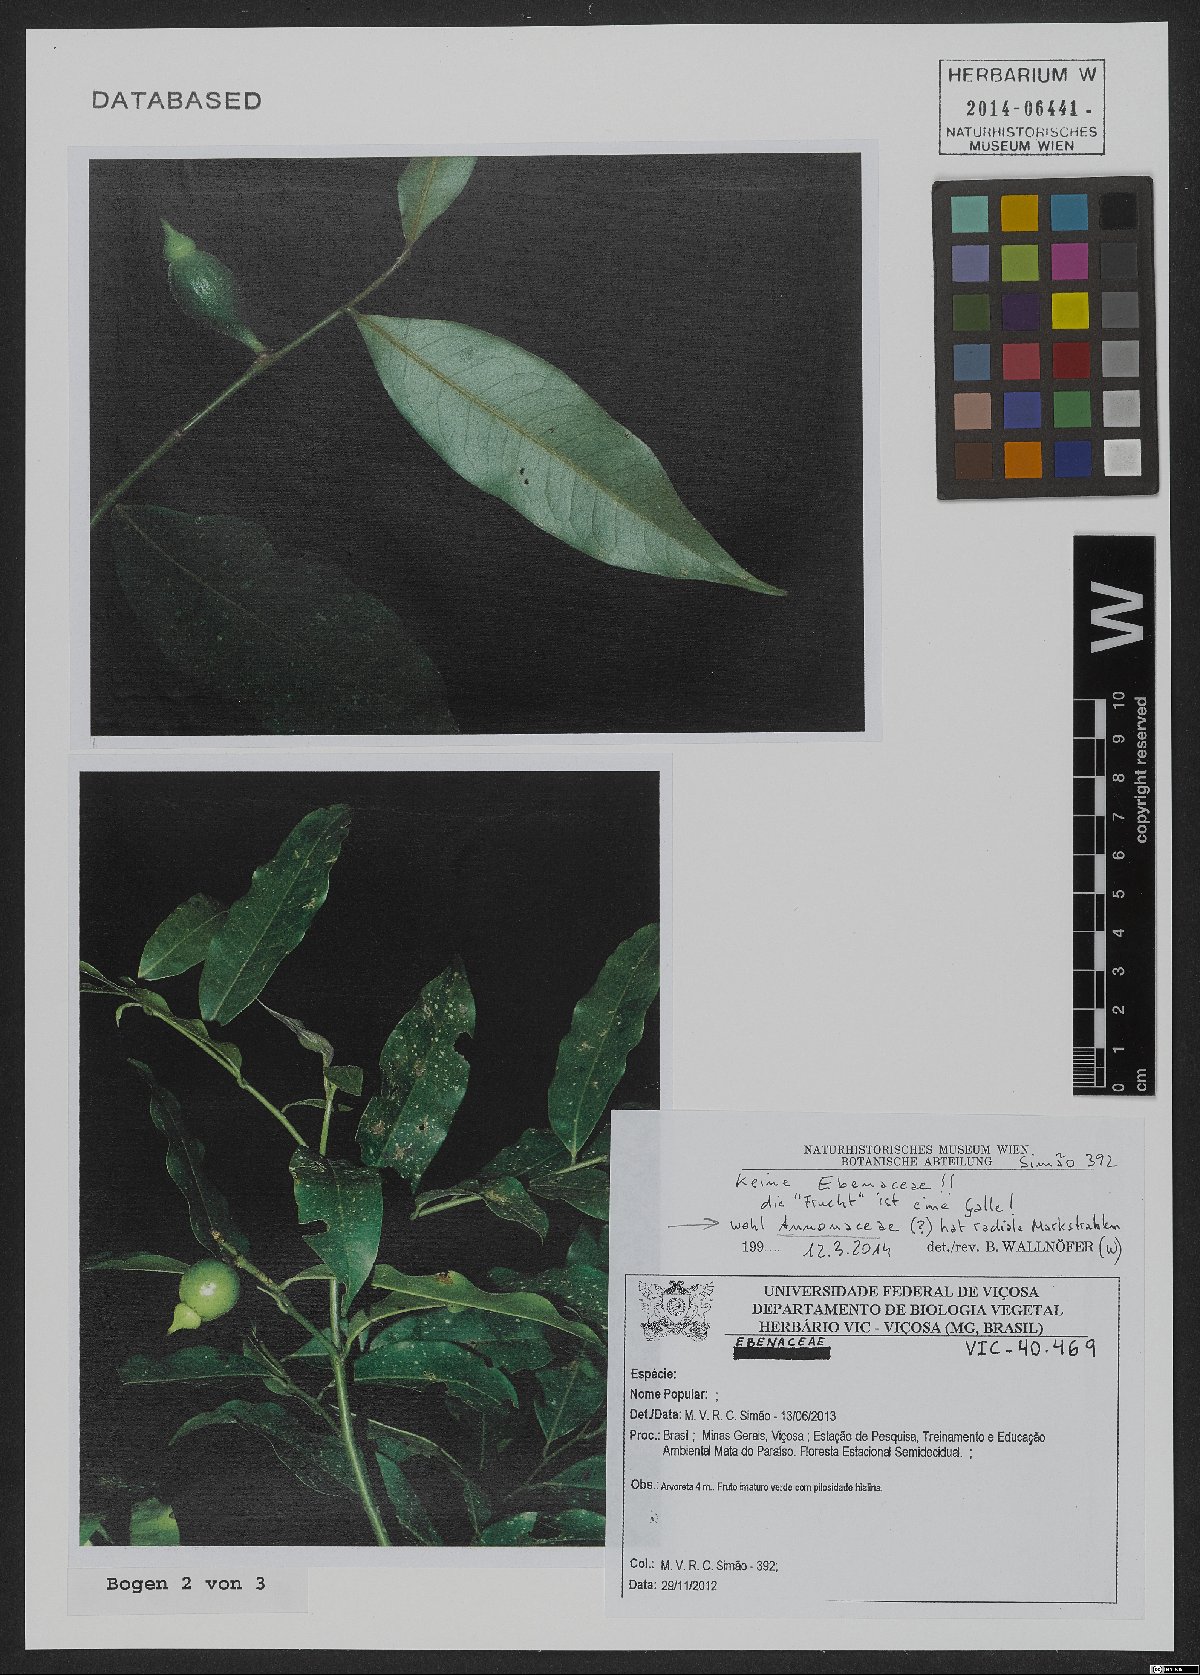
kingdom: Plantae
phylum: Tracheophyta
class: Magnoliopsida
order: Magnoliales
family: Annonaceae
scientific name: Annonaceae
